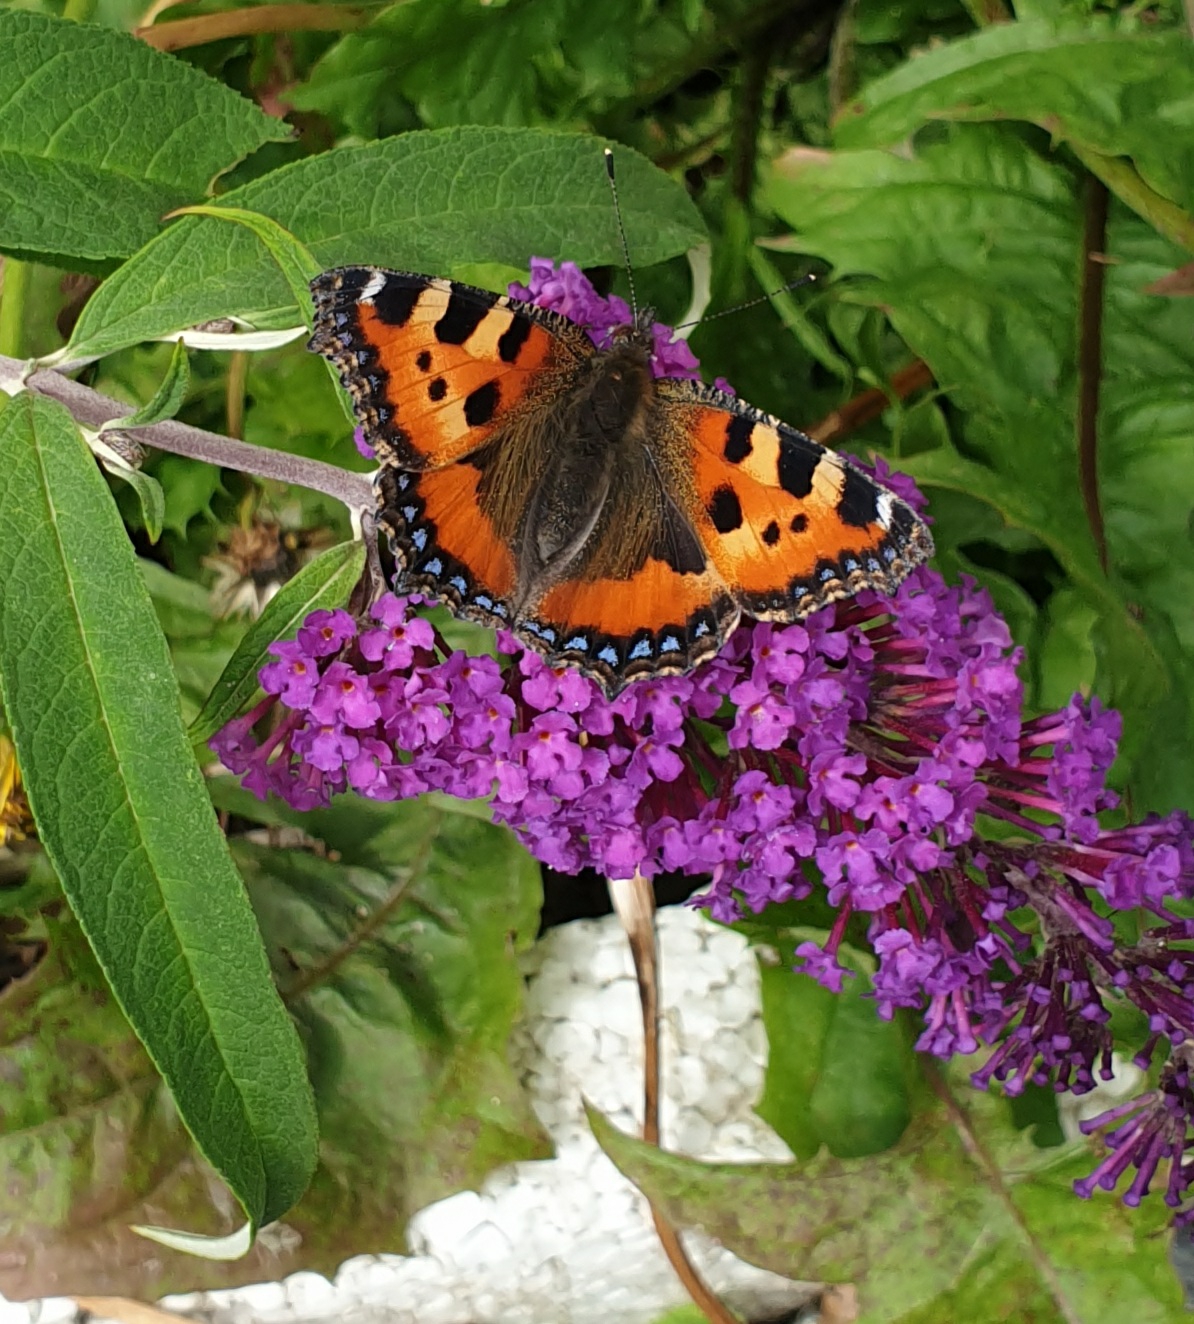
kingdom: Animalia
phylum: Arthropoda
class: Insecta
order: Lepidoptera
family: Nymphalidae
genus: Aglais
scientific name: Aglais urticae
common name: Nældens takvinge
